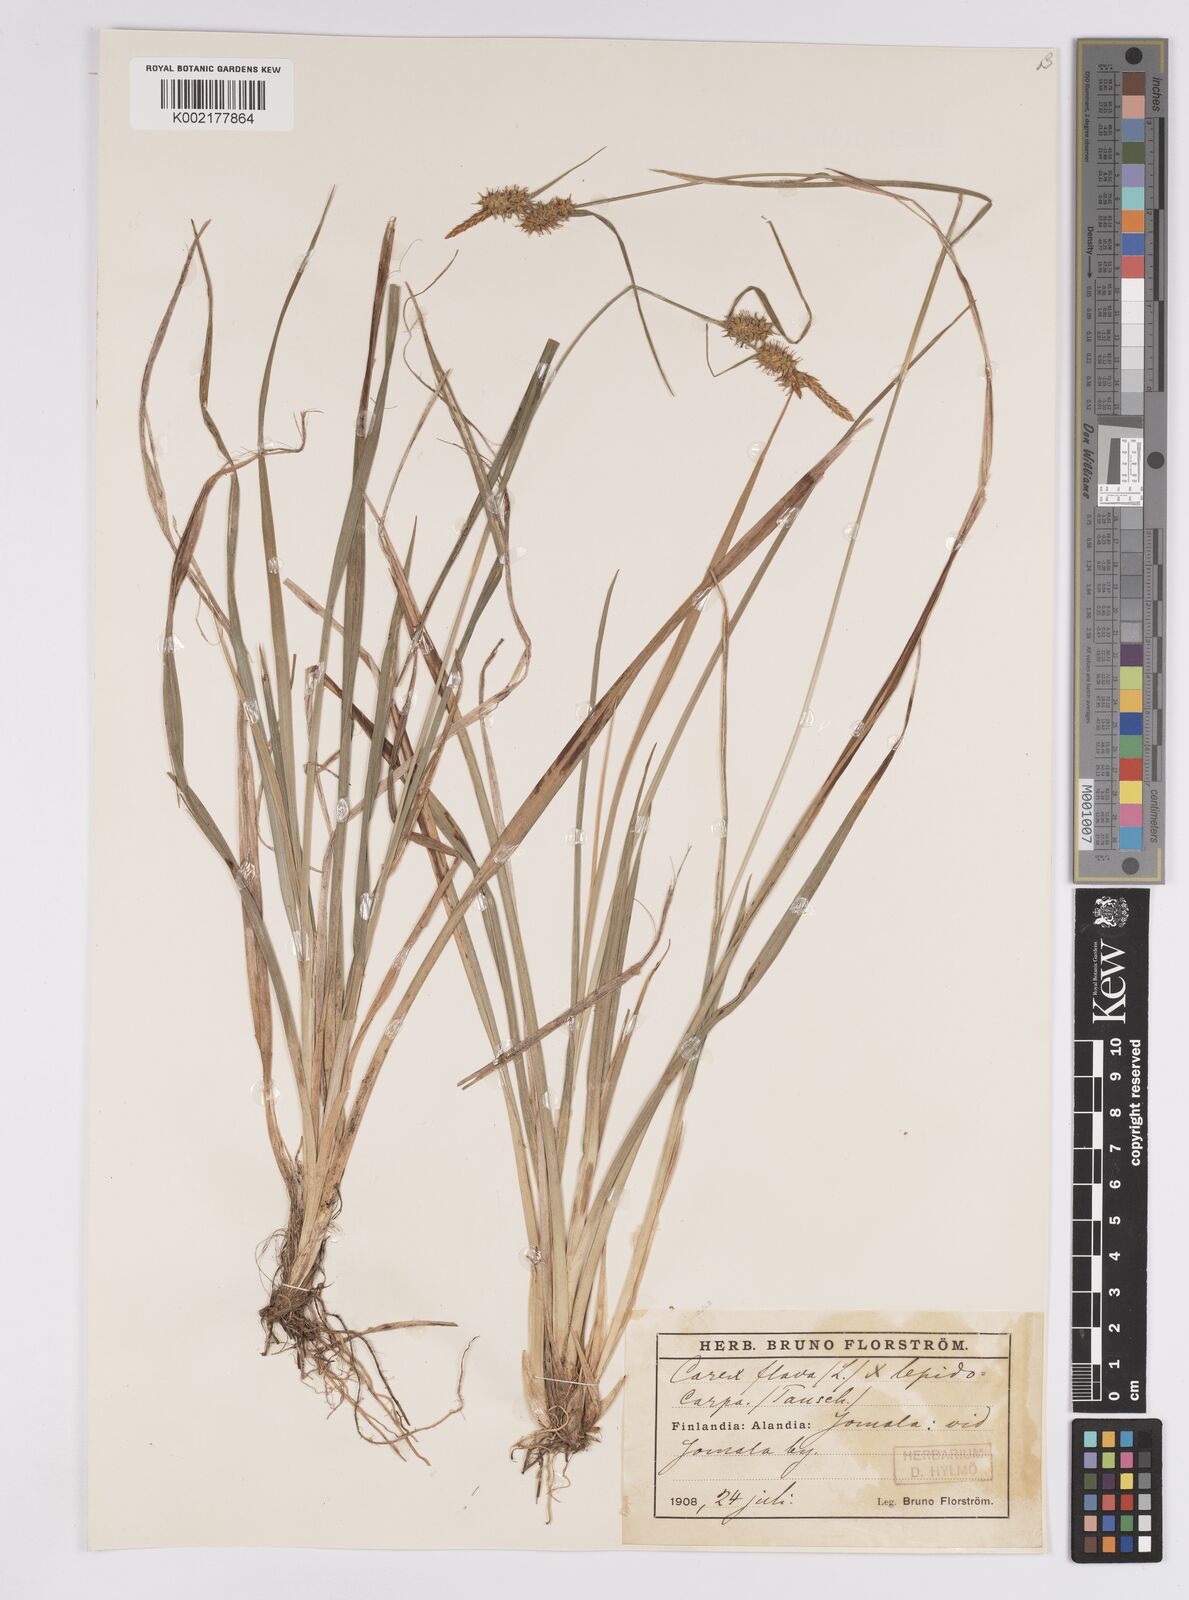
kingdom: Plantae
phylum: Tracheophyta
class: Liliopsida
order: Poales
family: Cyperaceae
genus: Carex
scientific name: Carex flava
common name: Large yellow-sedge
